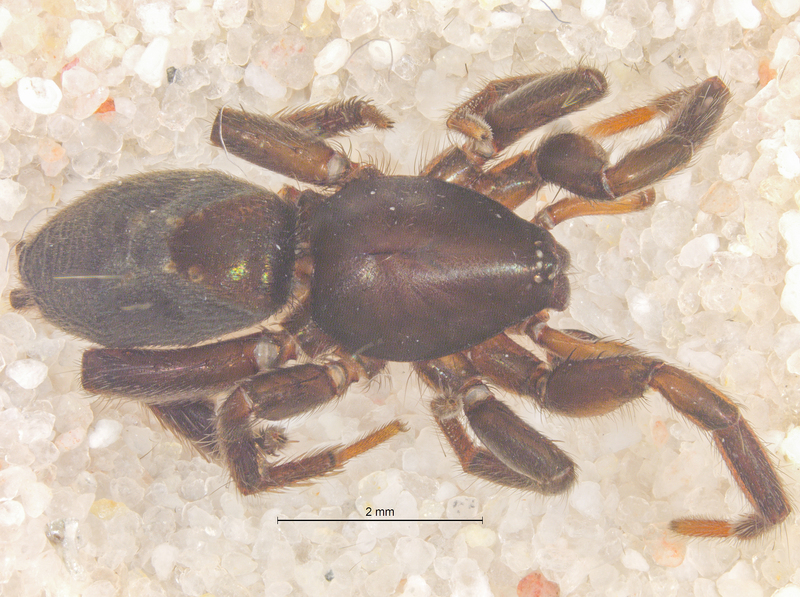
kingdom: Animalia
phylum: Arthropoda
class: Arachnida
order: Araneae
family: Gnaphosidae
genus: Zelotes
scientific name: Zelotes clivicola
